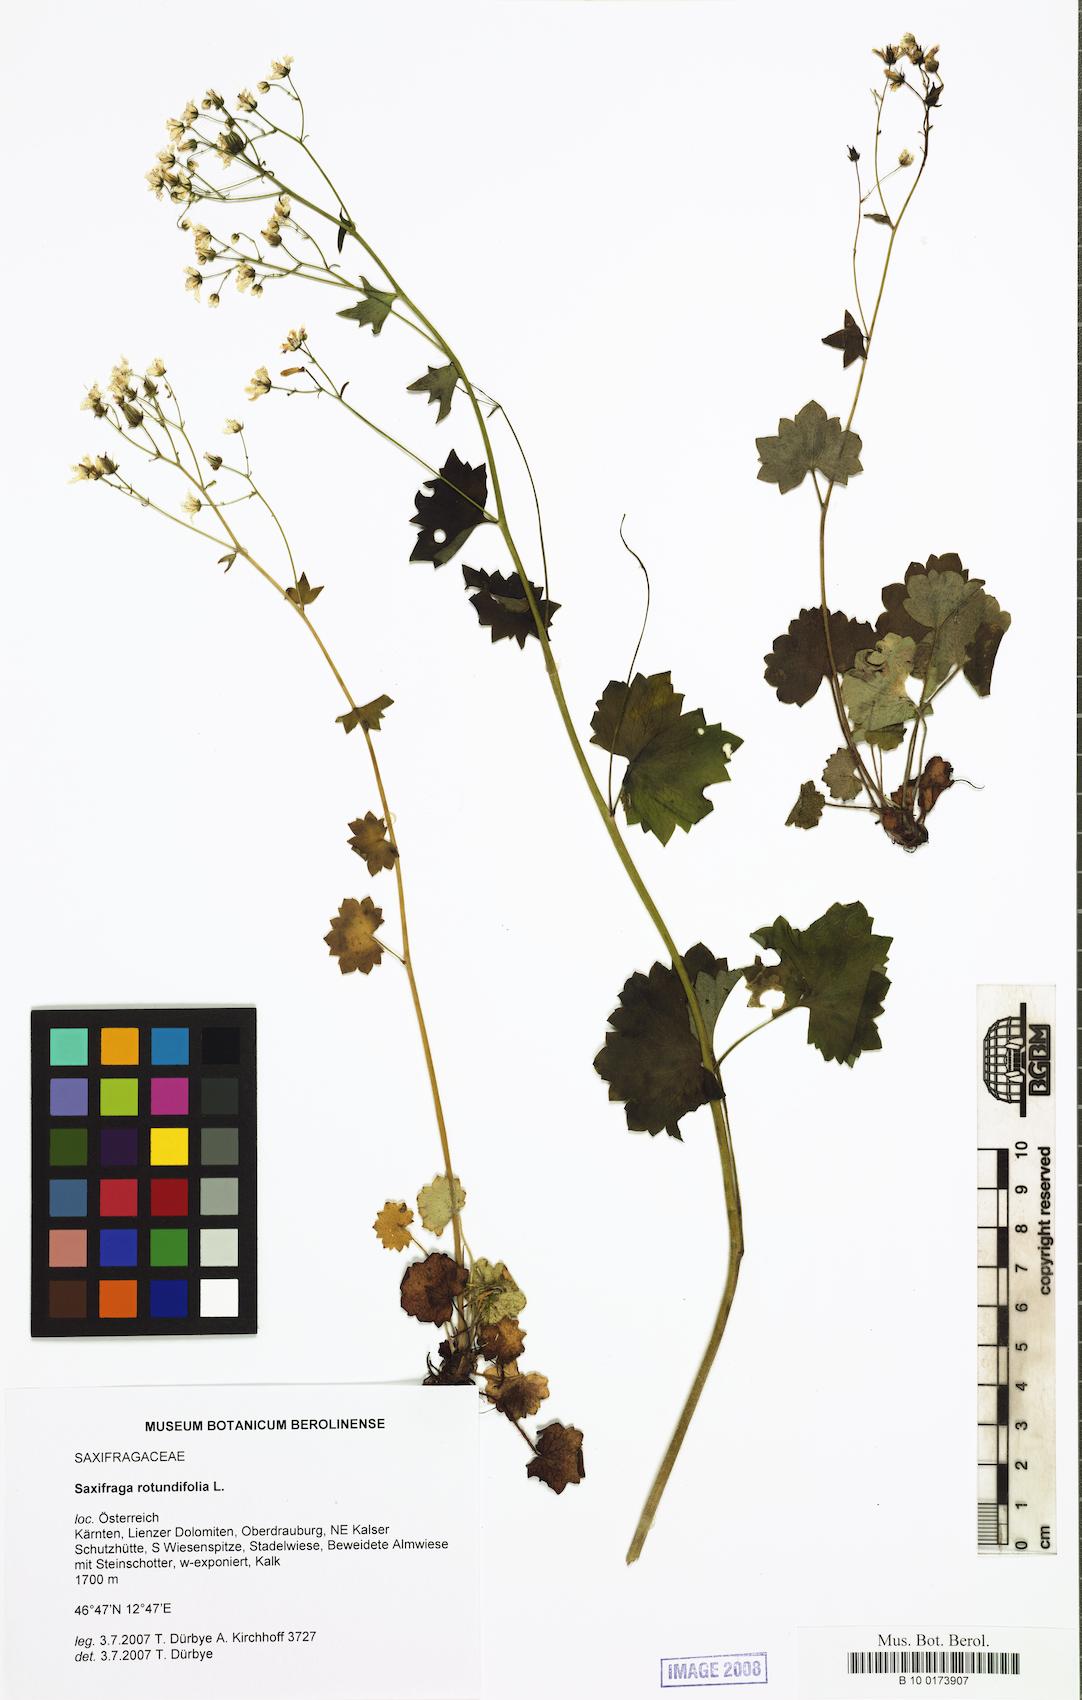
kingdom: Plantae
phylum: Tracheophyta
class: Magnoliopsida
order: Saxifragales
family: Saxifragaceae
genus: Saxifraga
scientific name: Saxifraga rotundifolia
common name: Round-leaved saxifrage
